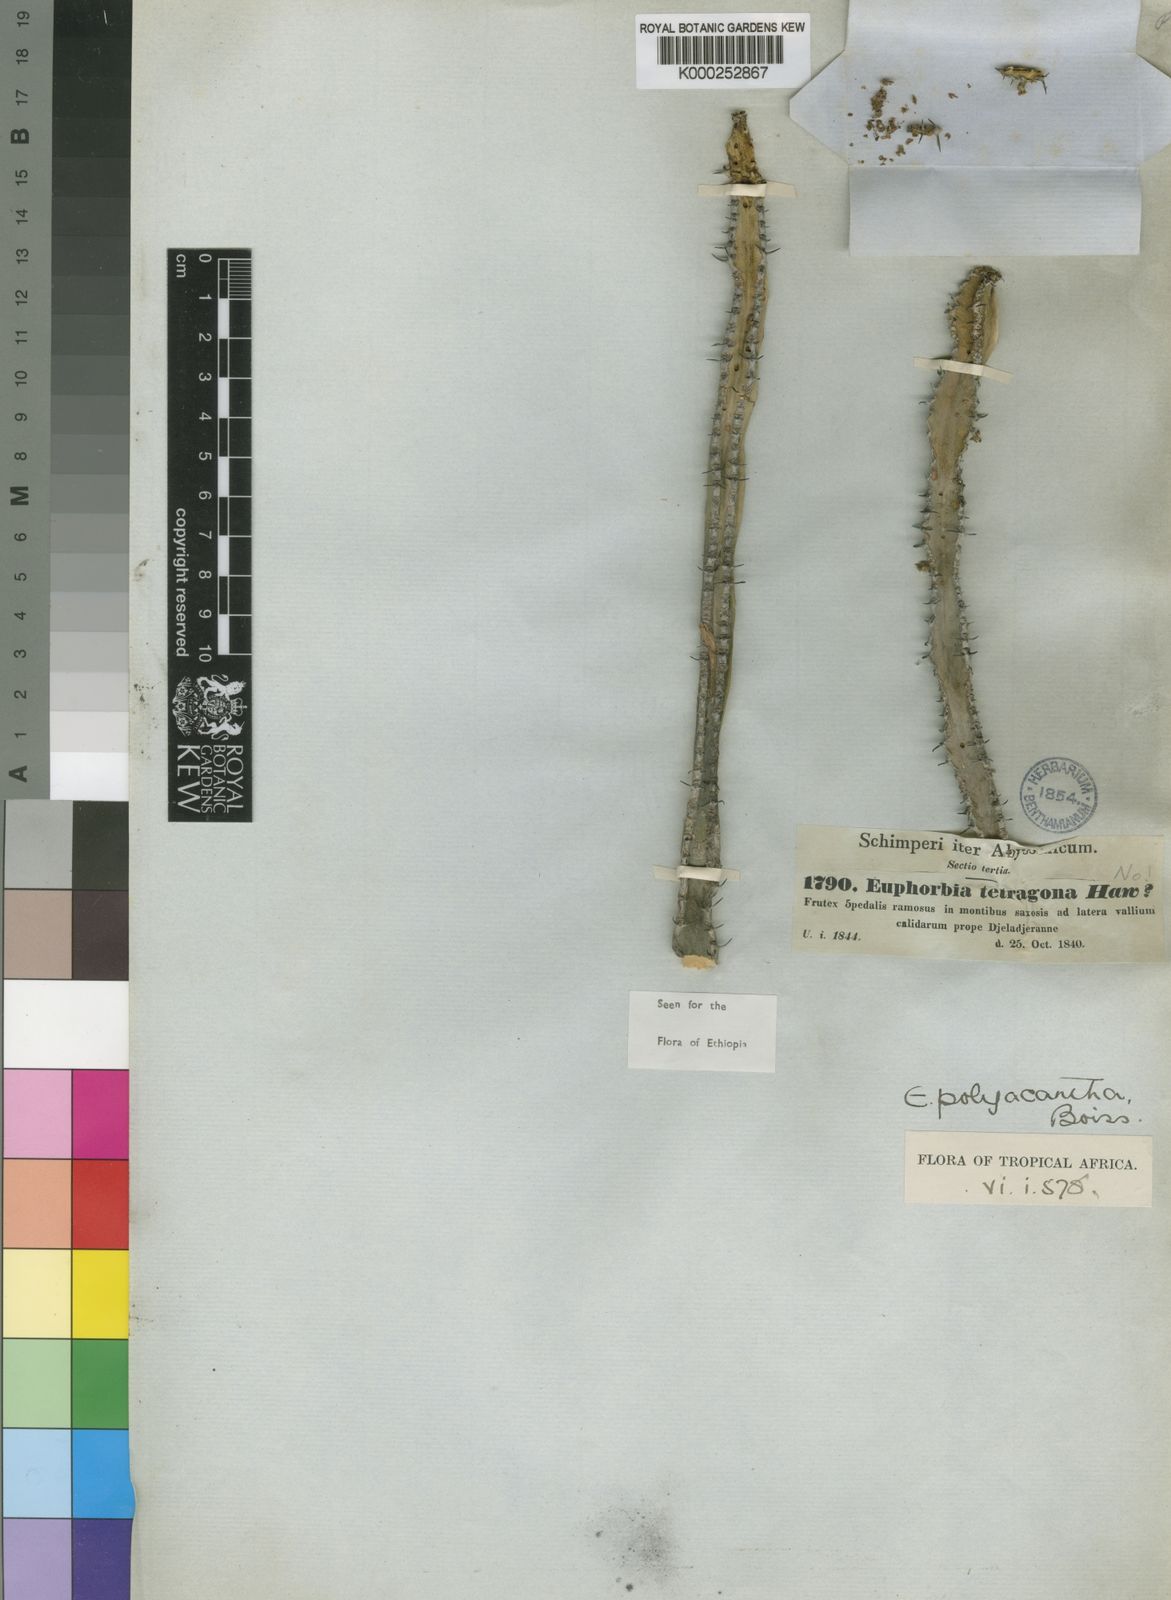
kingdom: Plantae
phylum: Tracheophyta
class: Magnoliopsida
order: Malpighiales
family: Euphorbiaceae
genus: Euphorbia
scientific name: Euphorbia polyacantha
